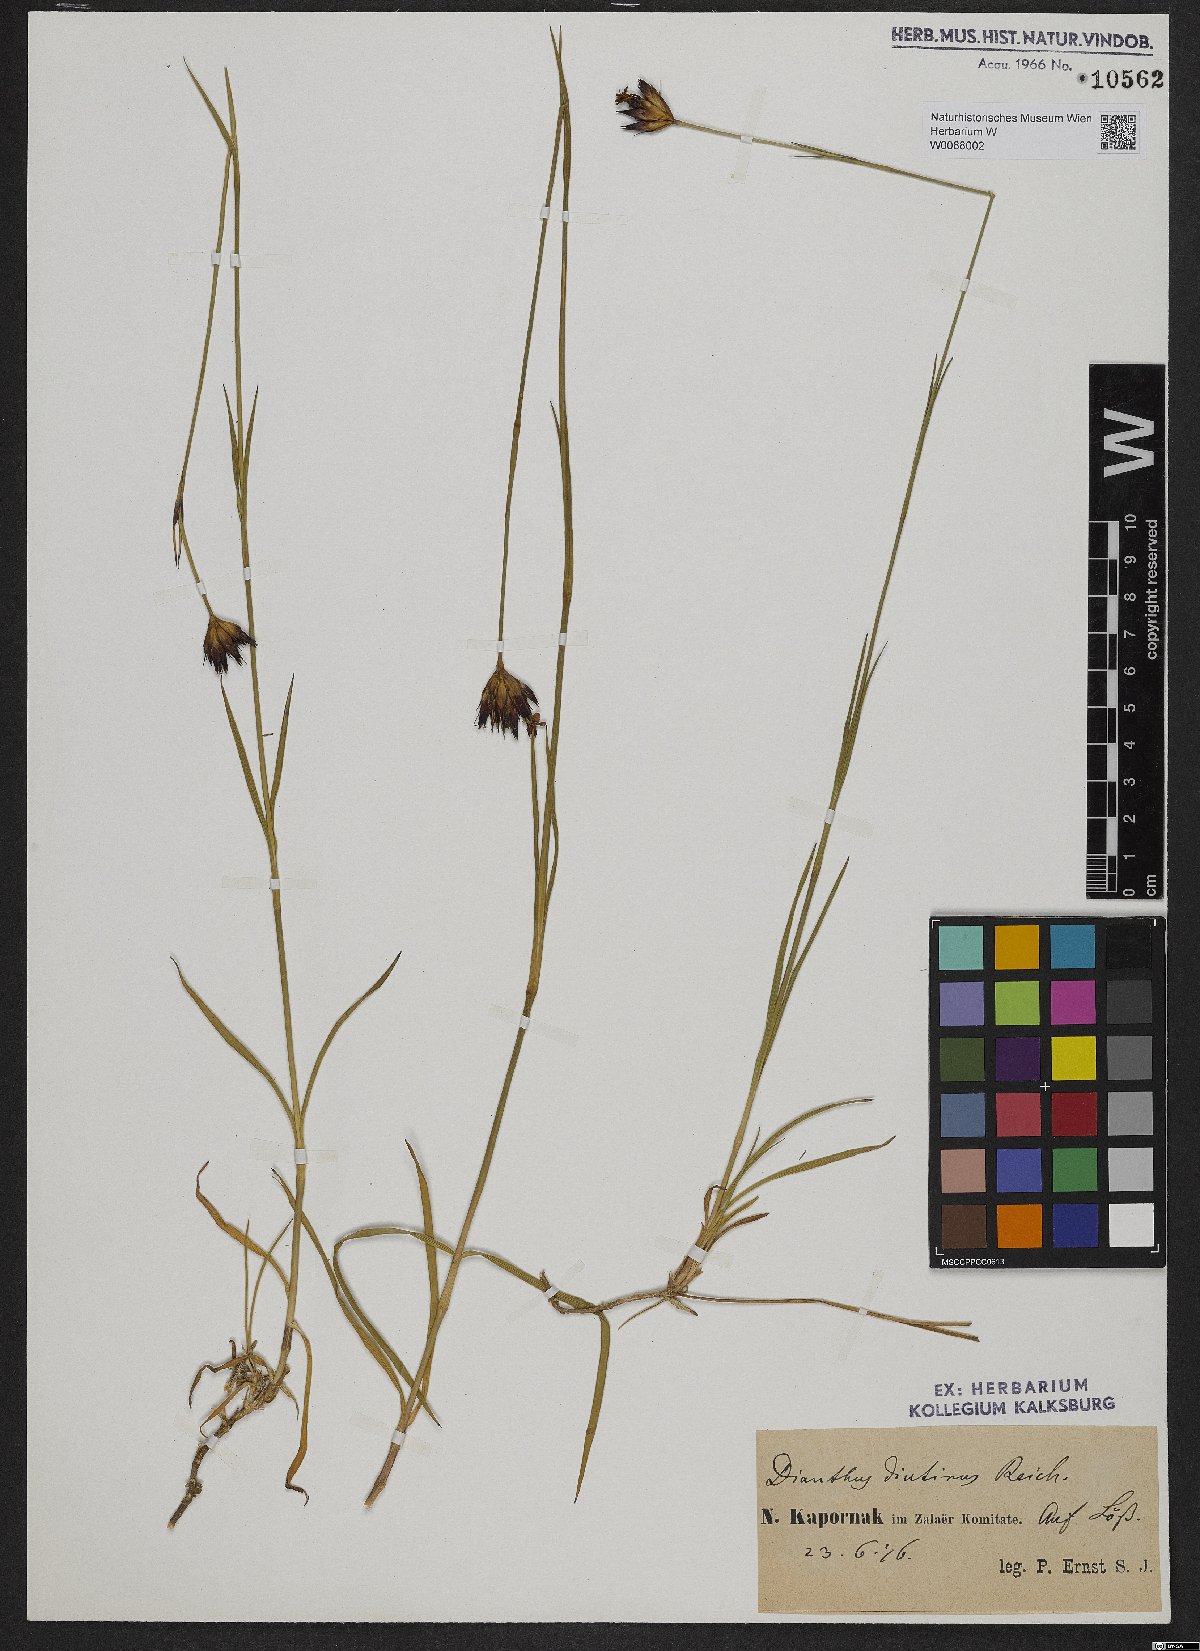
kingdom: Plantae
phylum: Tracheophyta
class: Magnoliopsida
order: Caryophyllales
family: Caryophyllaceae
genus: Dianthus
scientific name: Dianthus pontederae
